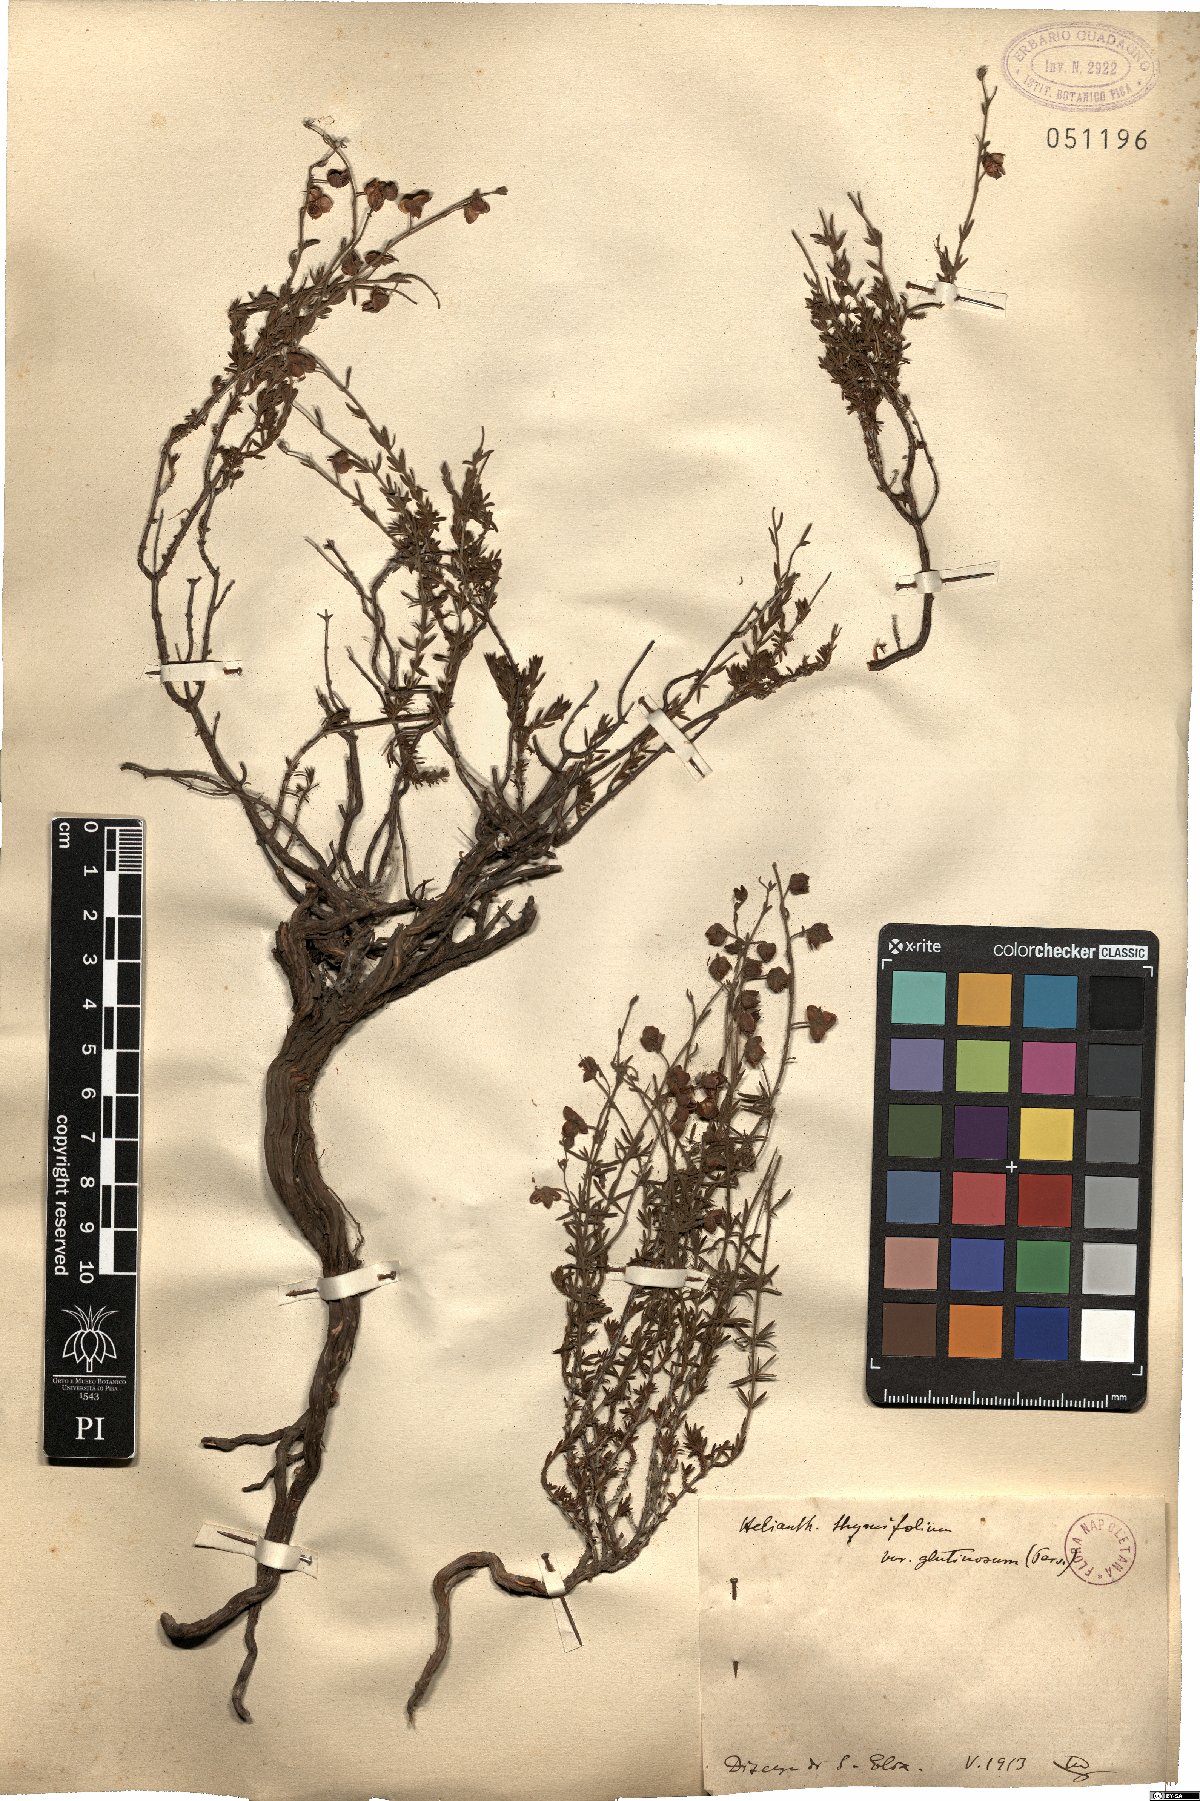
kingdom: Plantae
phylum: Tracheophyta
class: Magnoliopsida
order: Malvales
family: Cistaceae
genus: Fumana
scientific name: Fumana thymifolia
